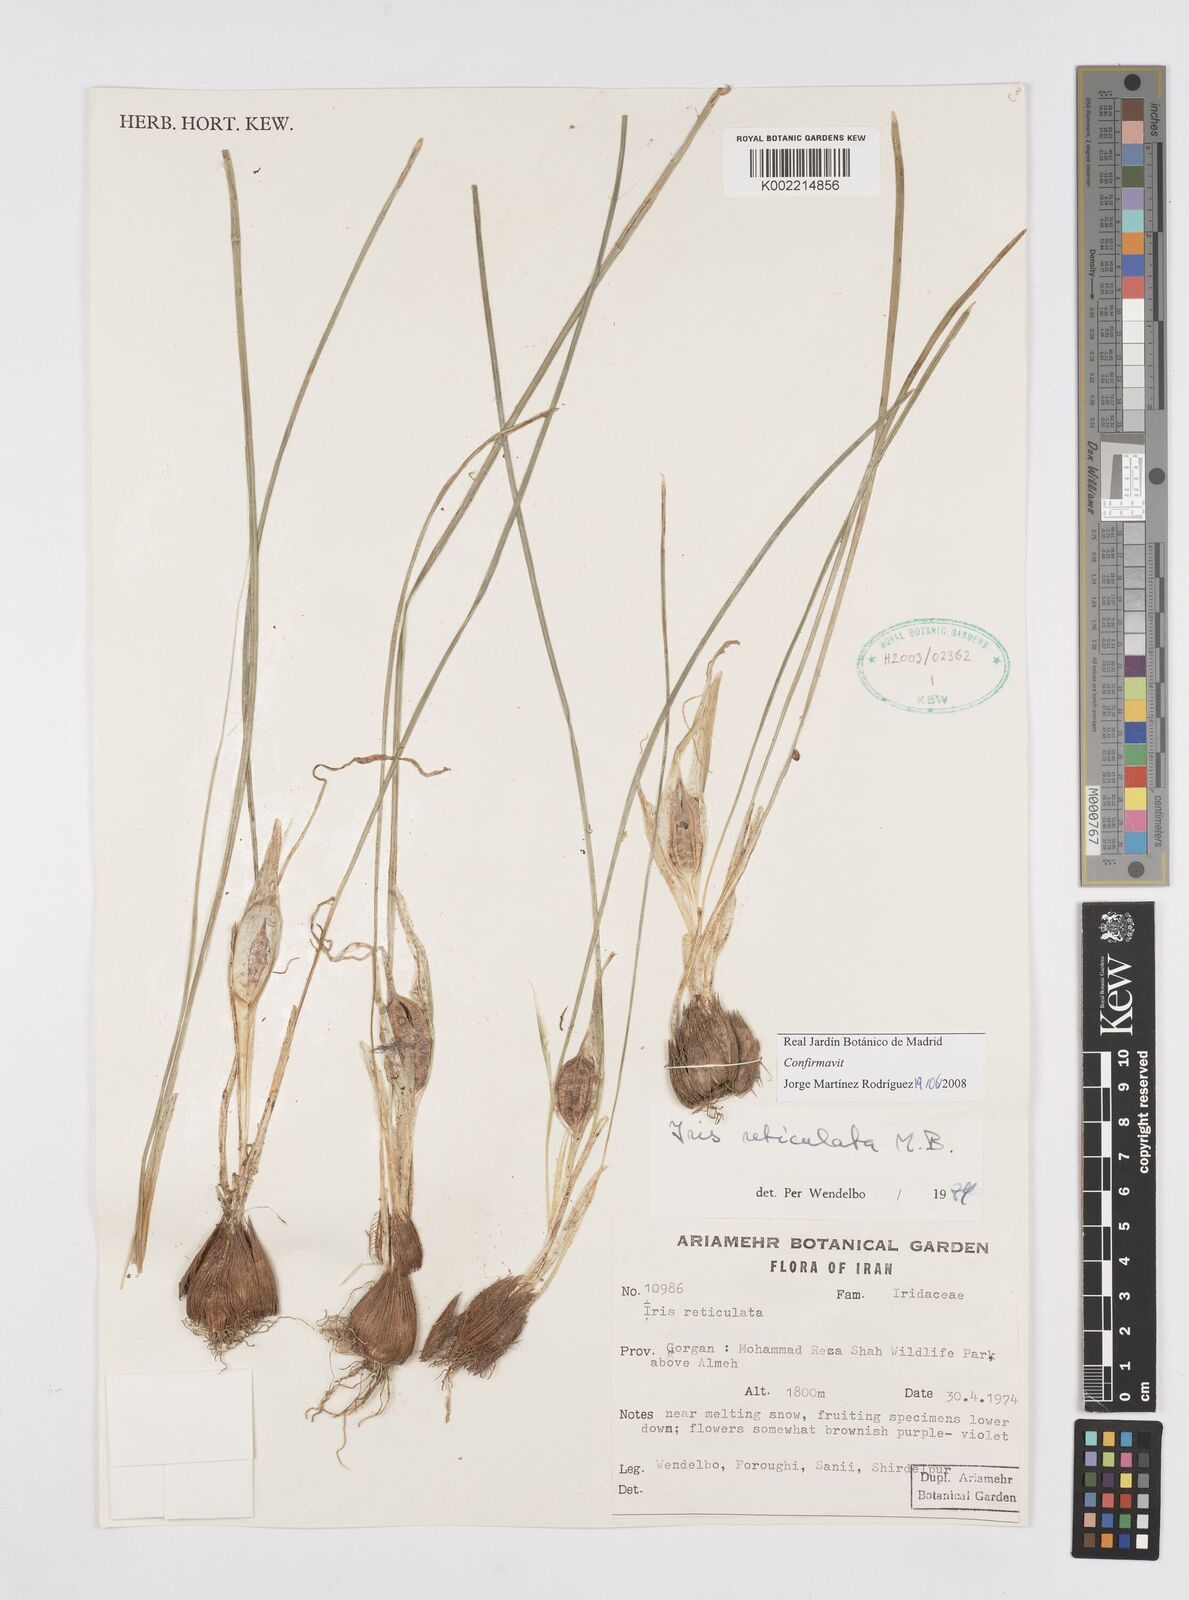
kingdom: Plantae
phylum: Tracheophyta
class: Liliopsida
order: Asparagales
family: Iridaceae
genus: Iris
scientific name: Iris reticulata
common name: Netted iris
